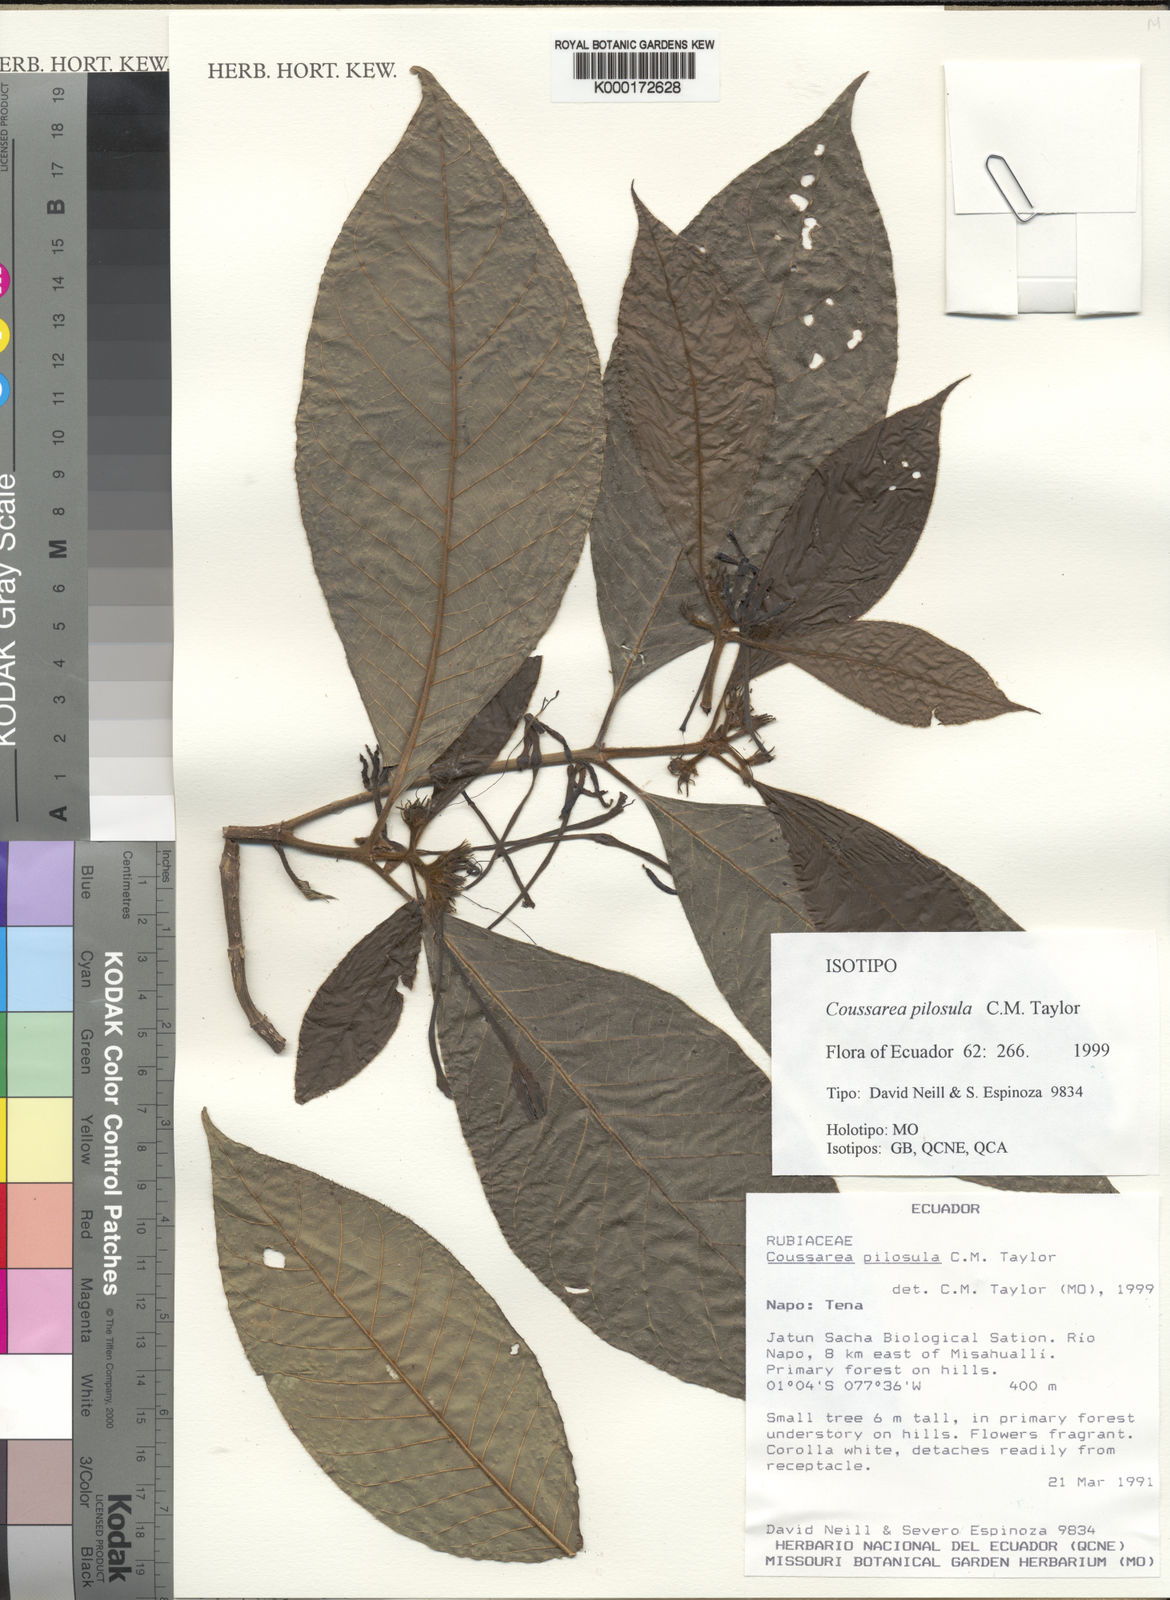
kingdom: Plantae
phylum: Tracheophyta
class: Magnoliopsida
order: Gentianales
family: Rubiaceae
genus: Coussarea
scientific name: Coussarea pilosula
